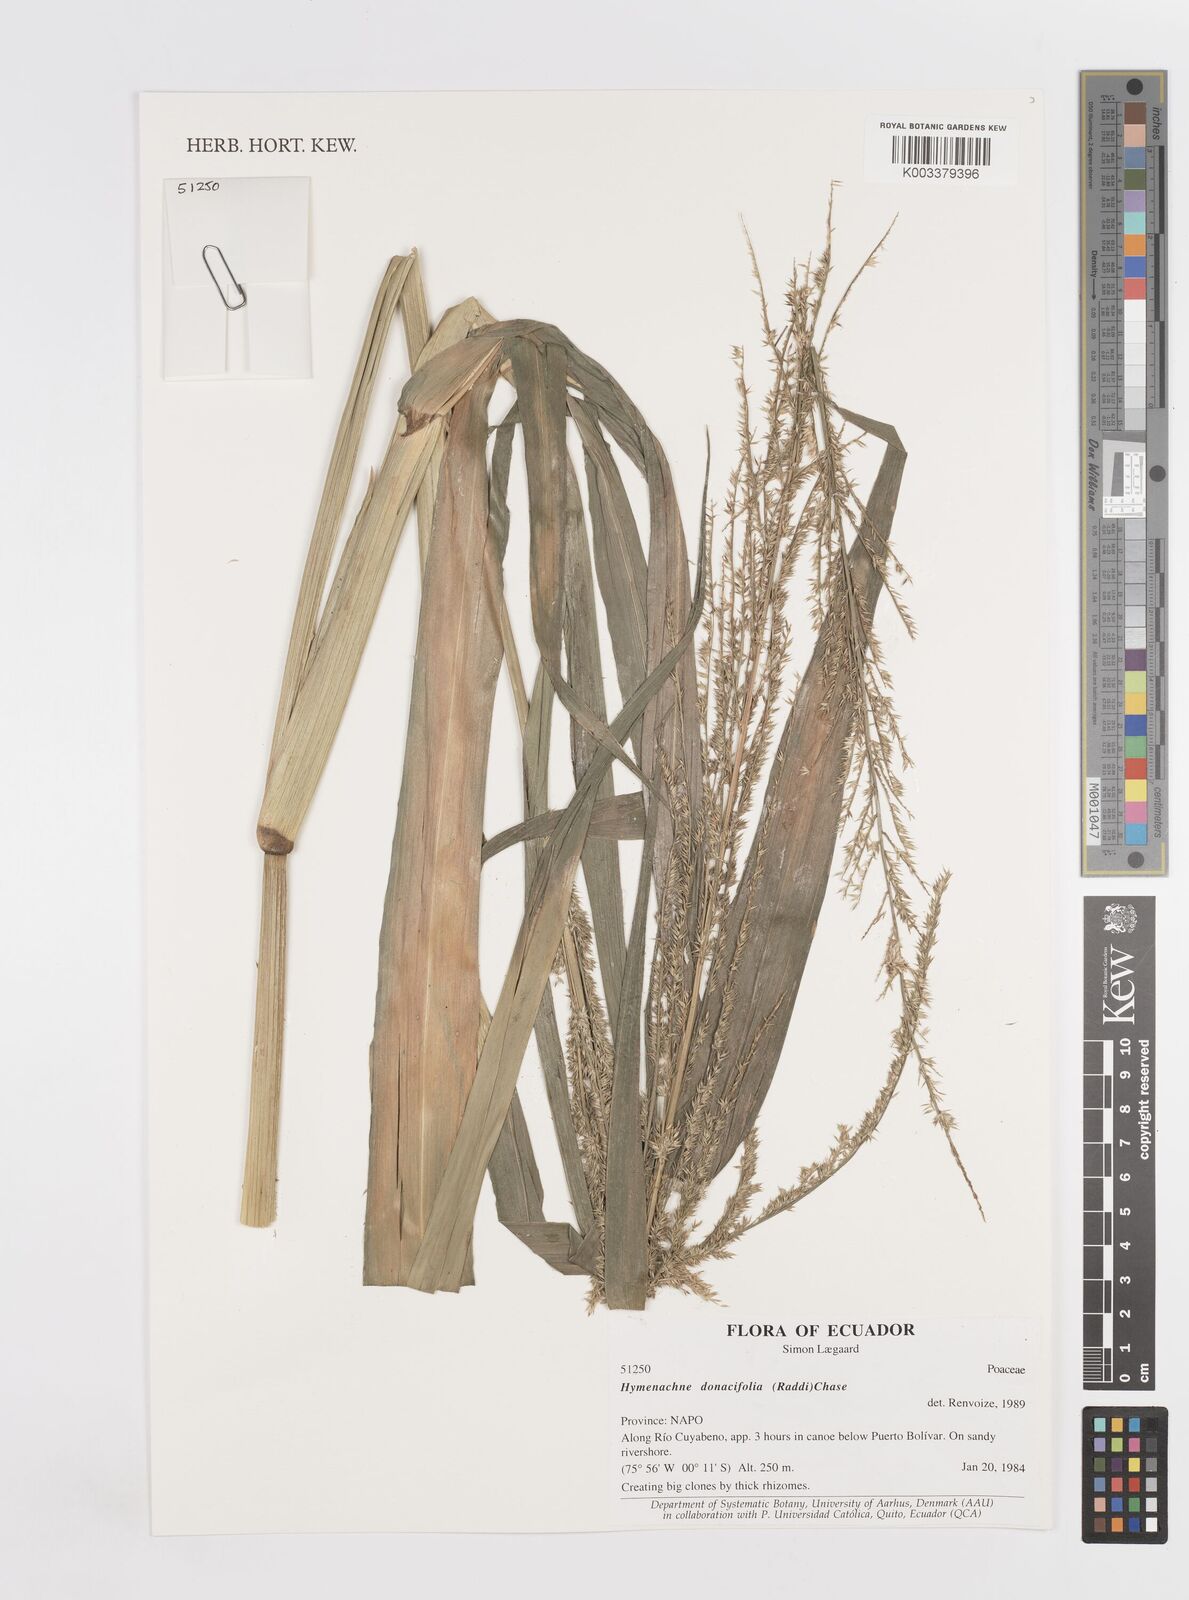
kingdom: Plantae
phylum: Tracheophyta
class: Liliopsida
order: Poales
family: Poaceae
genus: Hymenachne
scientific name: Hymenachne donacifolia
